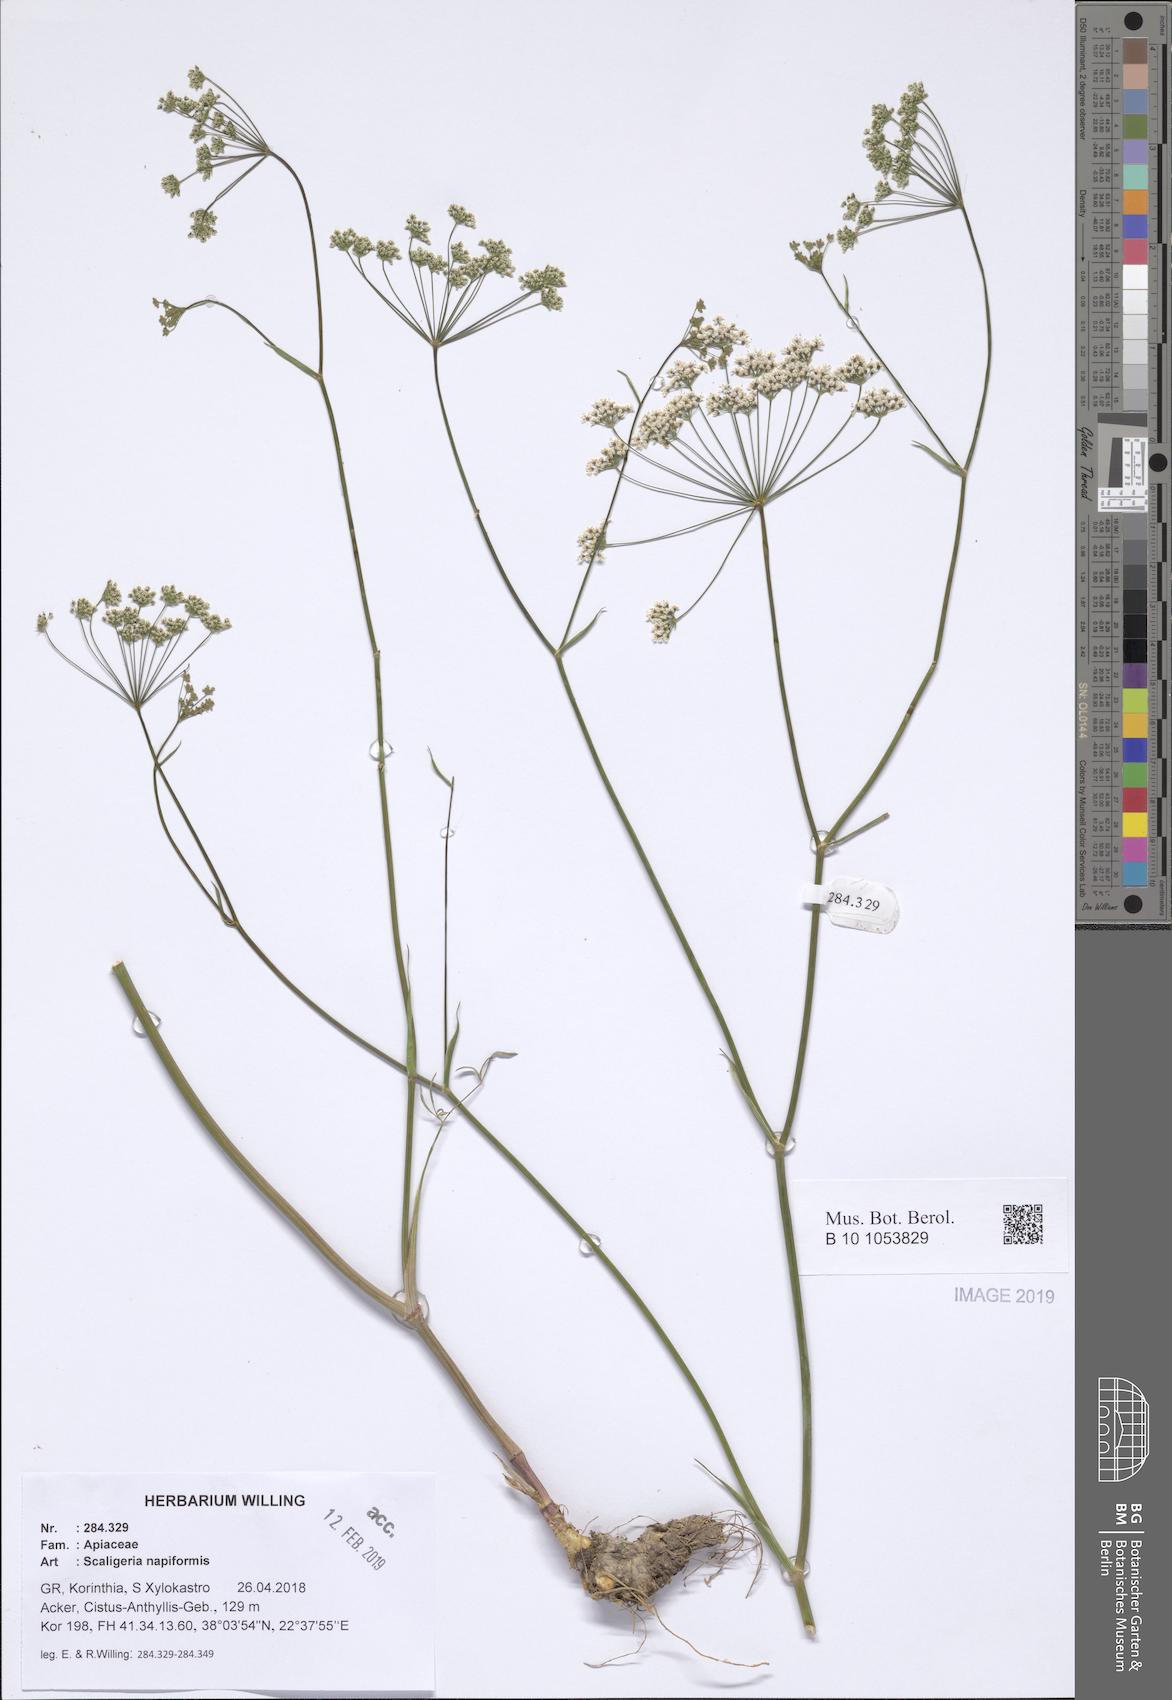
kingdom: Plantae
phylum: Tracheophyta
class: Magnoliopsida
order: Apiales
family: Apiaceae
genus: Scaligeria
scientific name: Scaligeria napiformis
